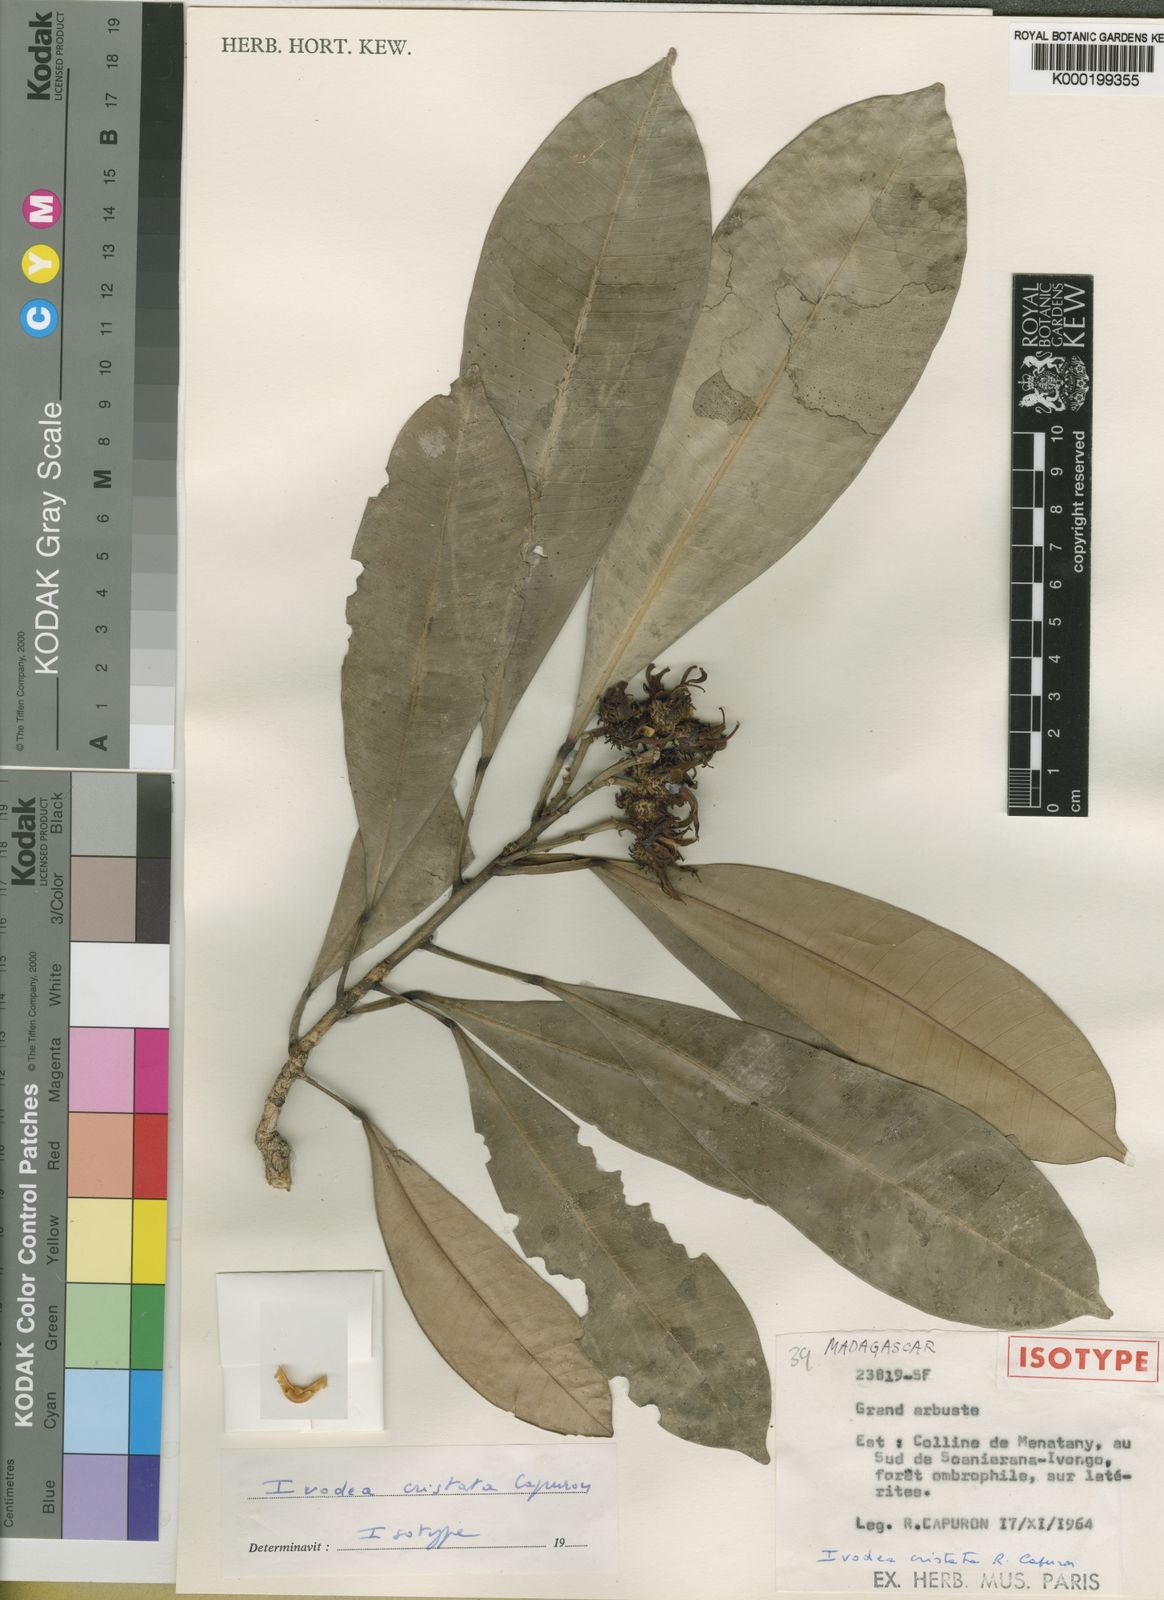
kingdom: Plantae
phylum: Tracheophyta
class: Magnoliopsida
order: Sapindales
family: Rutaceae
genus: Ivodea
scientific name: Ivodea cristata
